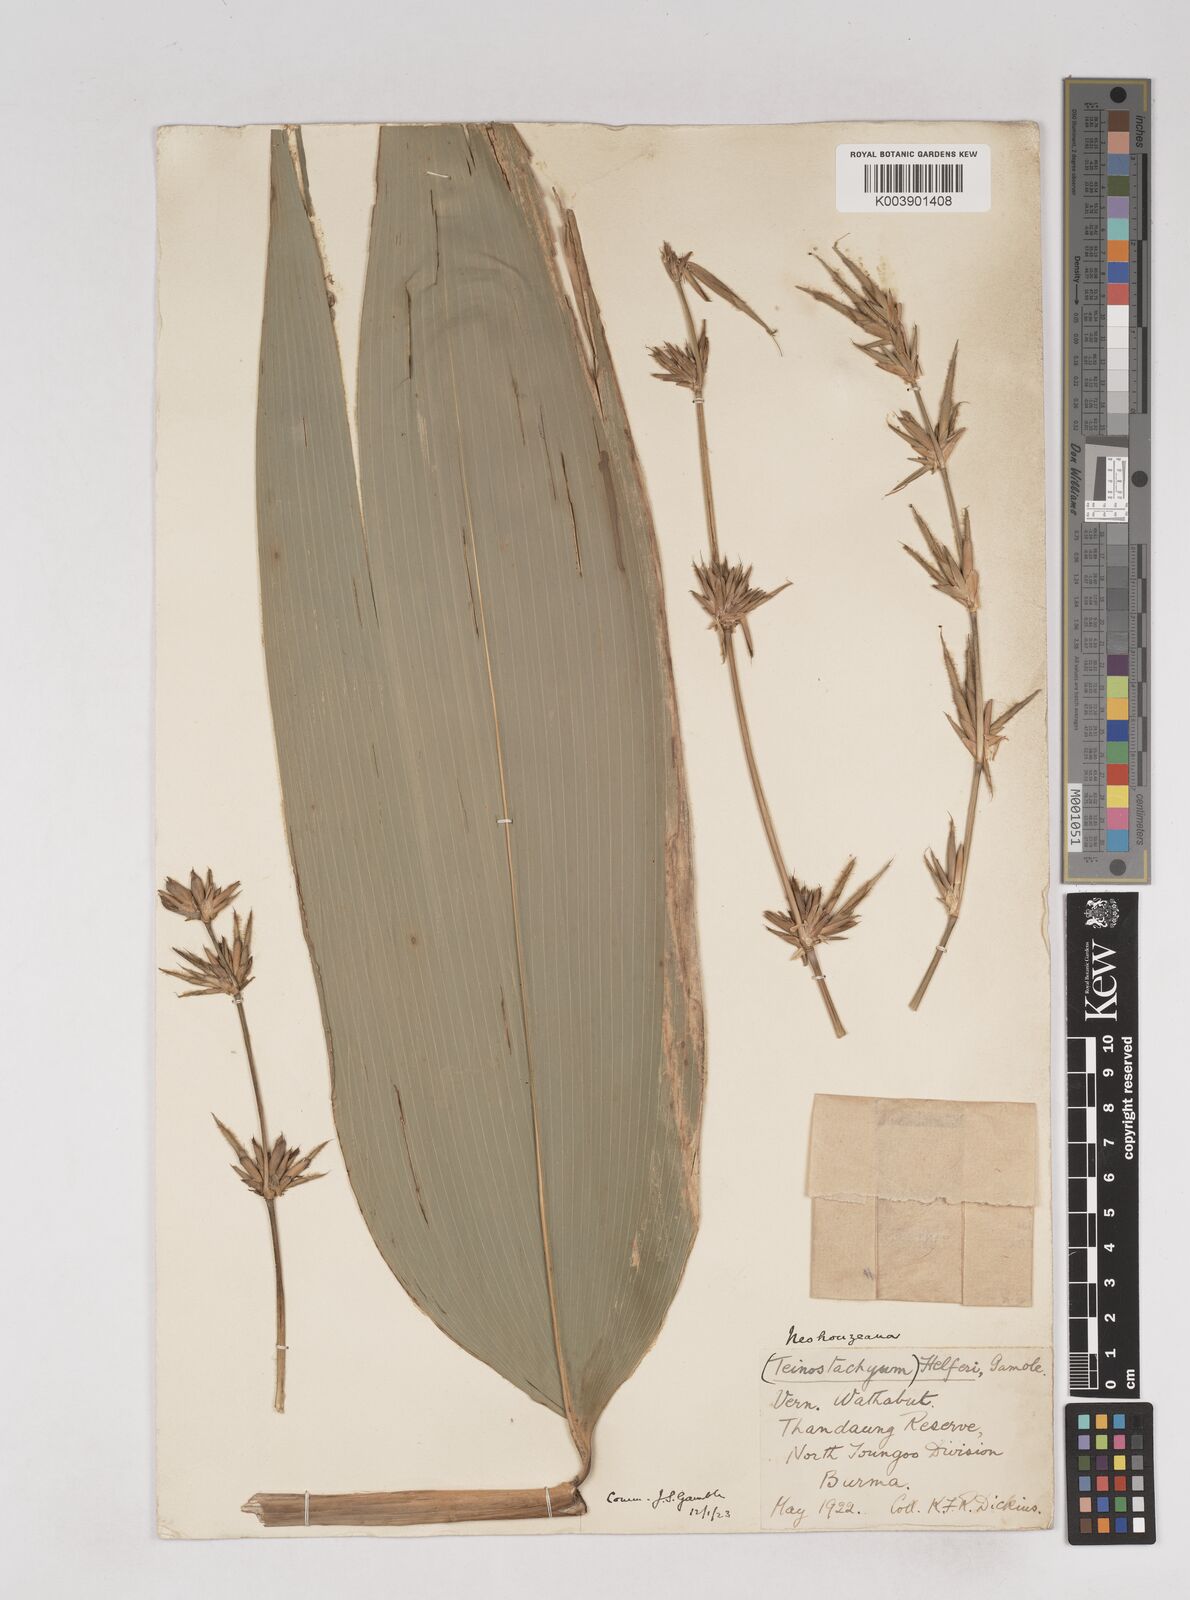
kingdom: Plantae
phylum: Tracheophyta
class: Liliopsida
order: Poales
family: Poaceae
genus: Schizostachyum
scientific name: Schizostachyum helferi
